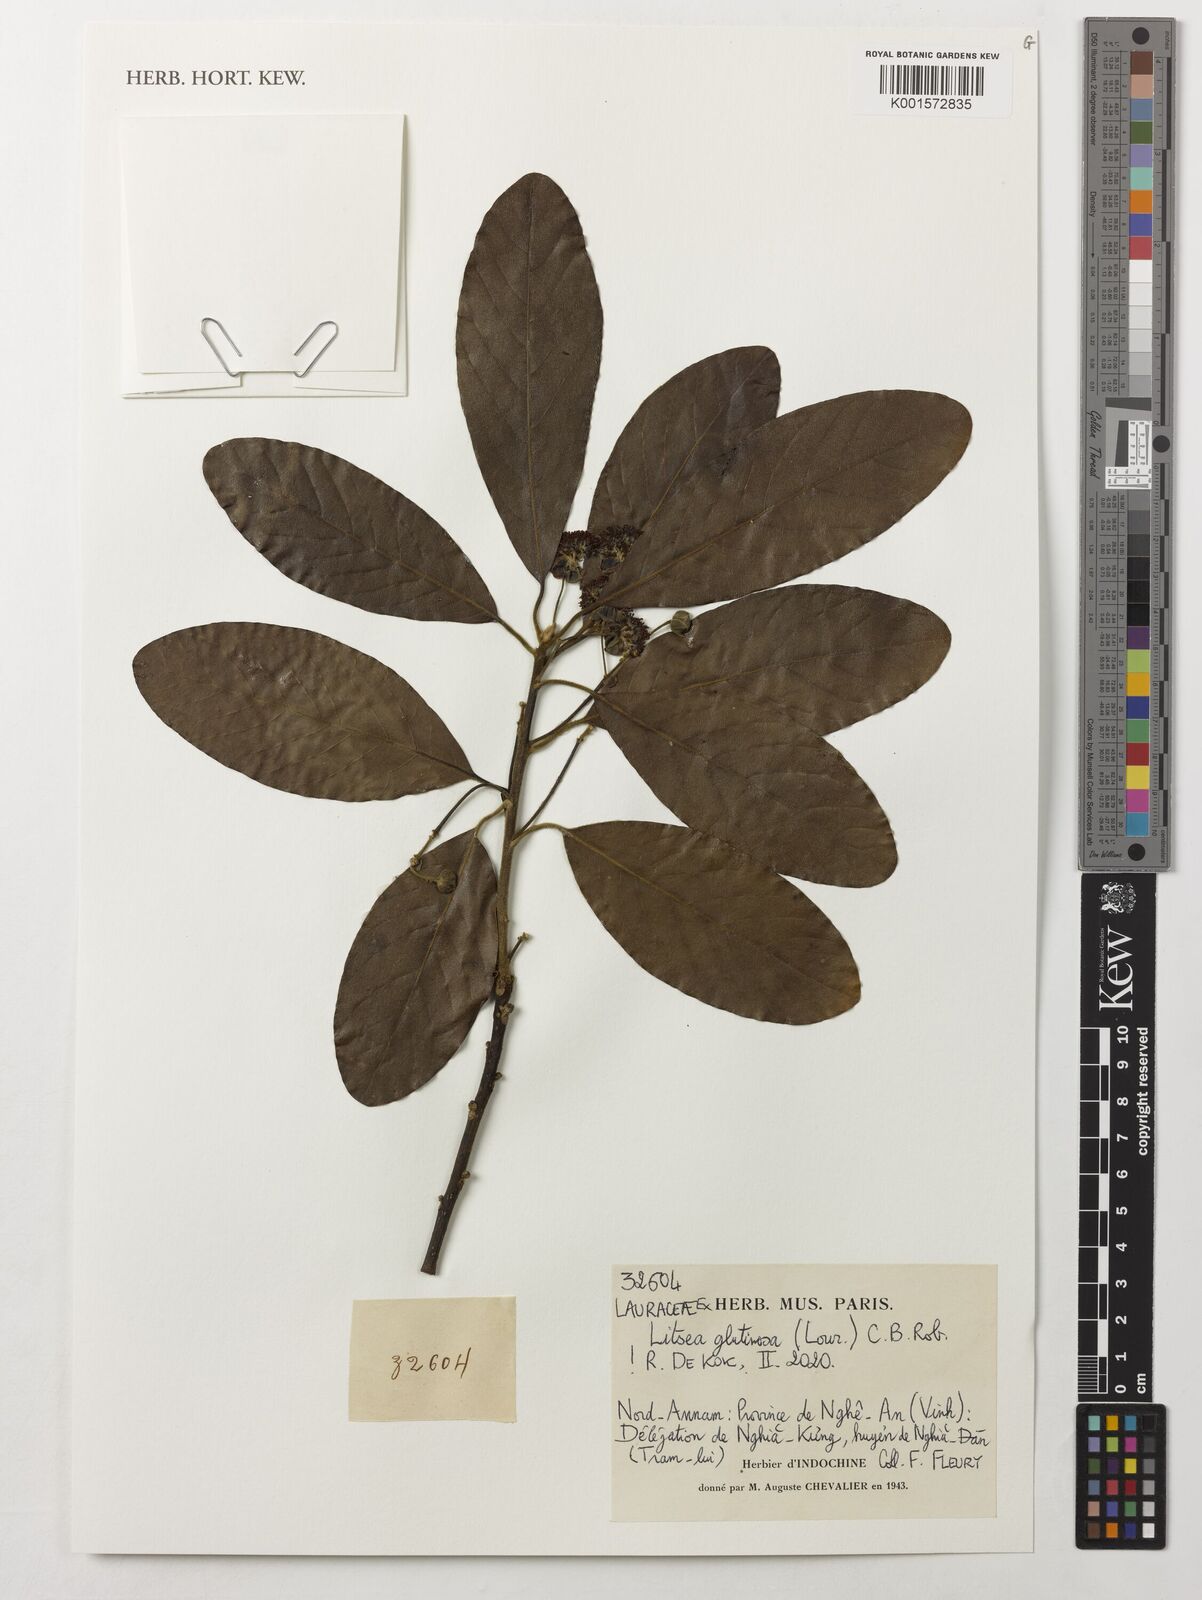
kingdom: Plantae
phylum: Tracheophyta
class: Magnoliopsida
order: Laurales
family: Lauraceae
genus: Litsea
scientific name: Litsea glutinosa
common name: Indian-laurel
